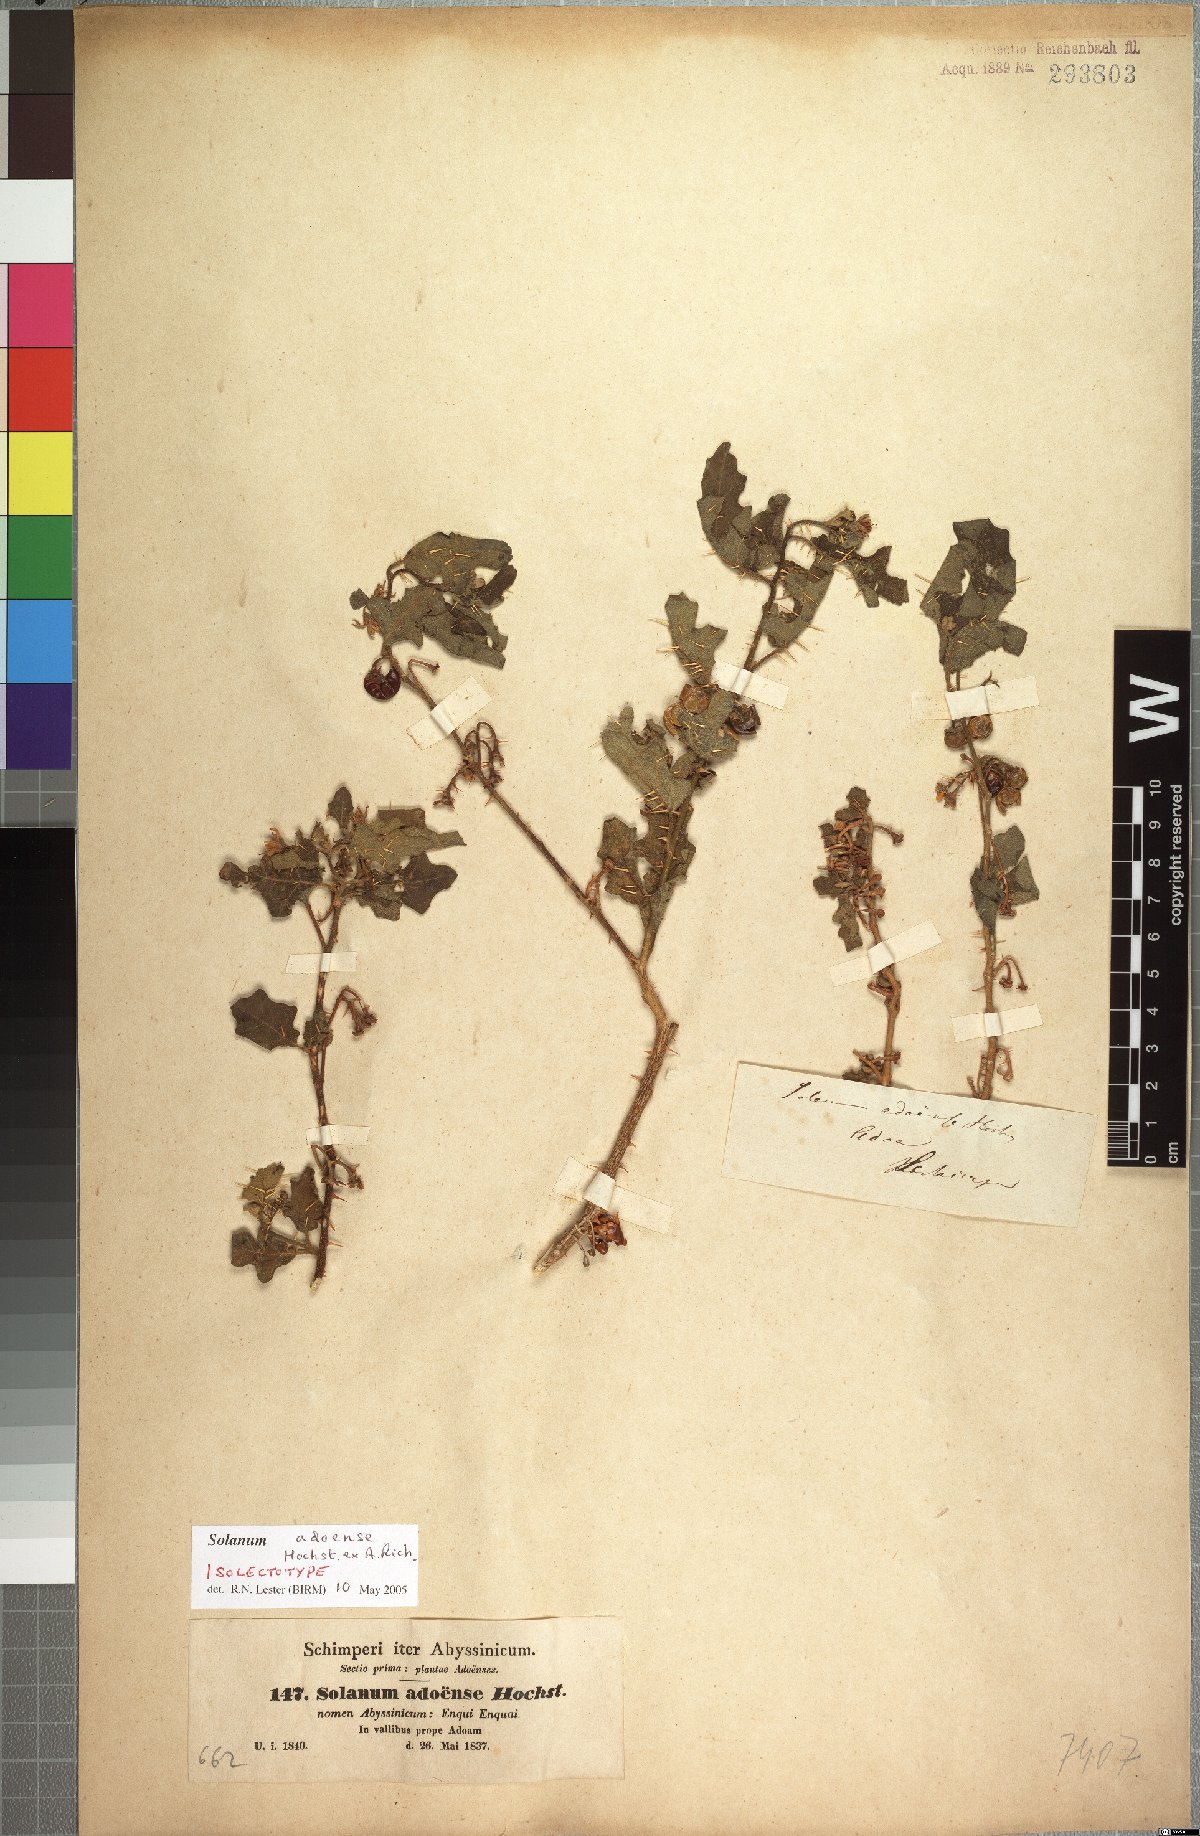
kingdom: Plantae
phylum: Tracheophyta
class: Magnoliopsida
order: Solanales
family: Solanaceae
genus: Solanum
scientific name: Solanum adoense
